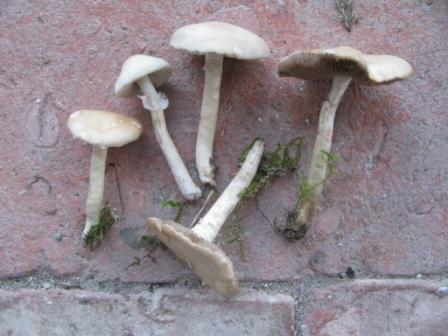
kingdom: Fungi
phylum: Basidiomycota
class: Agaricomycetes
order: Agaricales
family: Strophariaceae
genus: Agrocybe
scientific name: Agrocybe praecox
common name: tidlig agerhat
